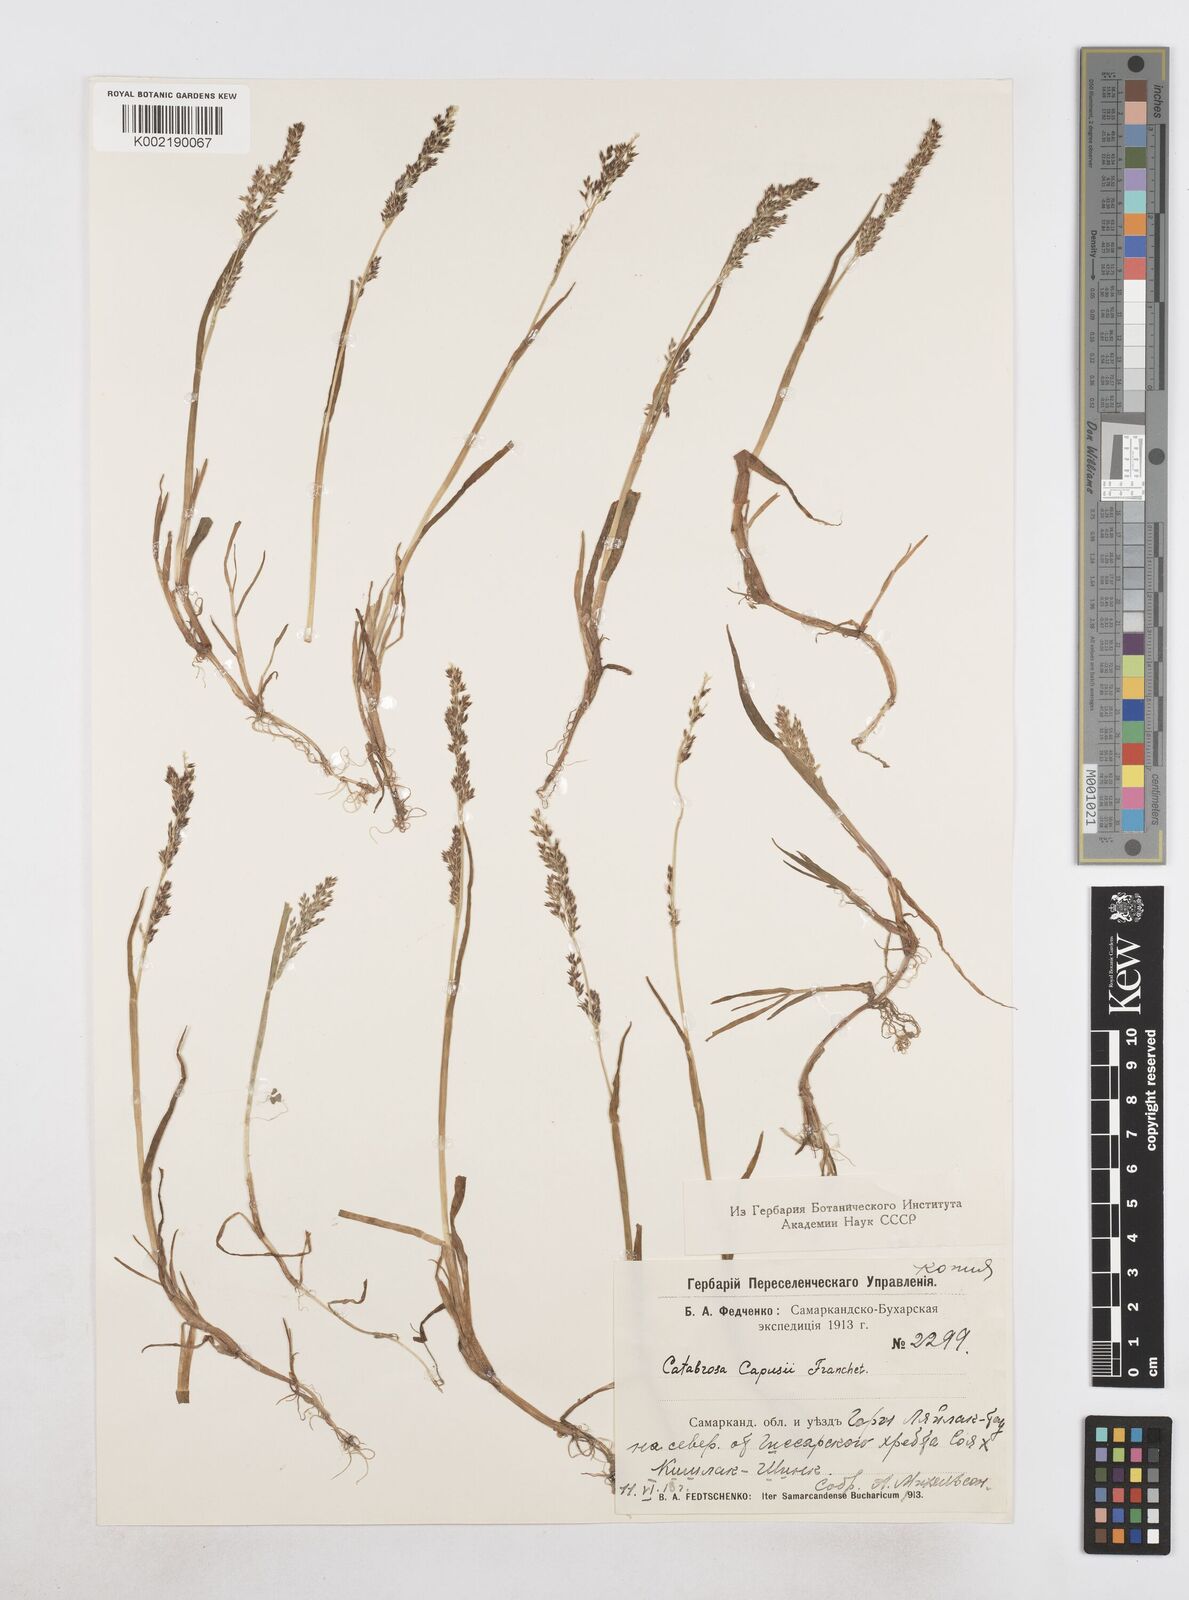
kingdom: Plantae
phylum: Tracheophyta
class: Liliopsida
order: Poales
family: Poaceae
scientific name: Poaceae
